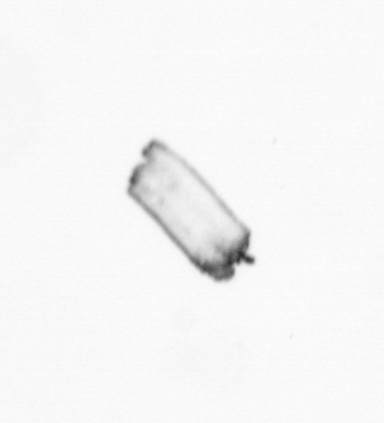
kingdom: Chromista
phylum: Ochrophyta
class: Bacillariophyceae
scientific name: Bacillariophyceae
